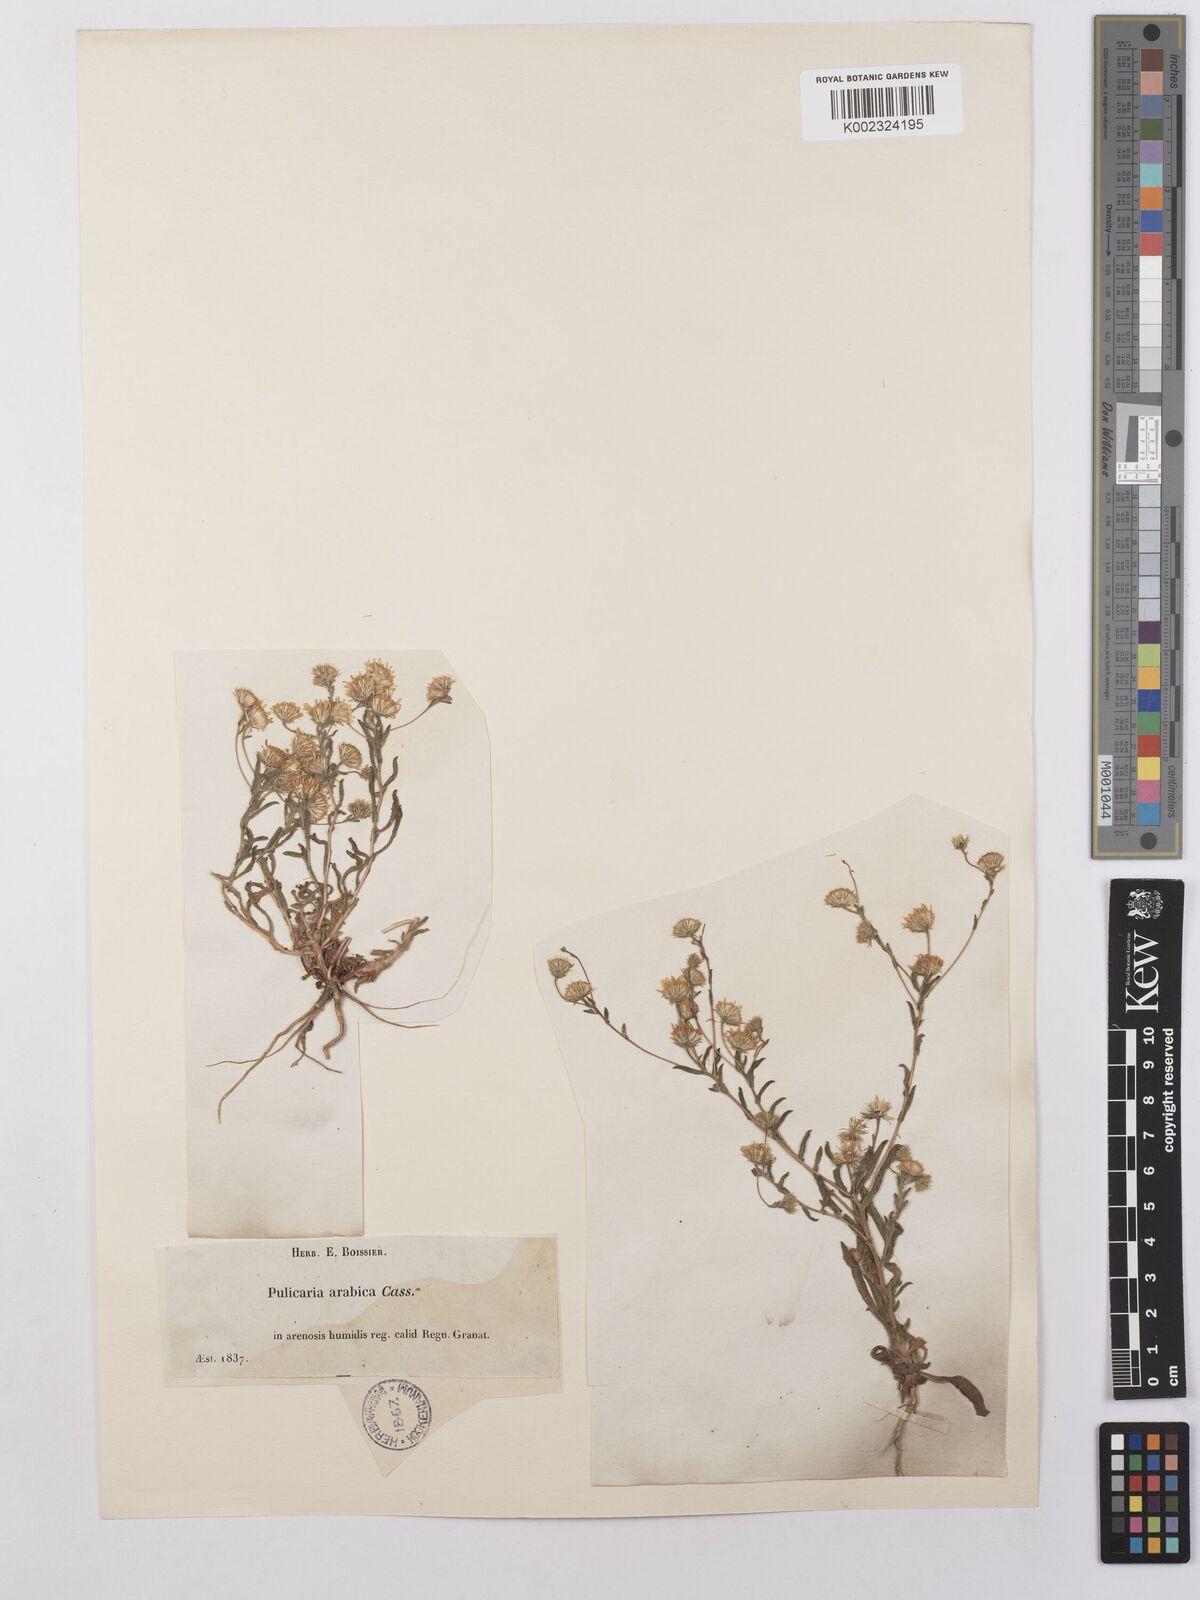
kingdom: Plantae
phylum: Tracheophyta
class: Magnoliopsida
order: Asterales
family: Asteraceae
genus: Pulicaria
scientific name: Pulicaria arabica
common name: Ladies' false fleabane
